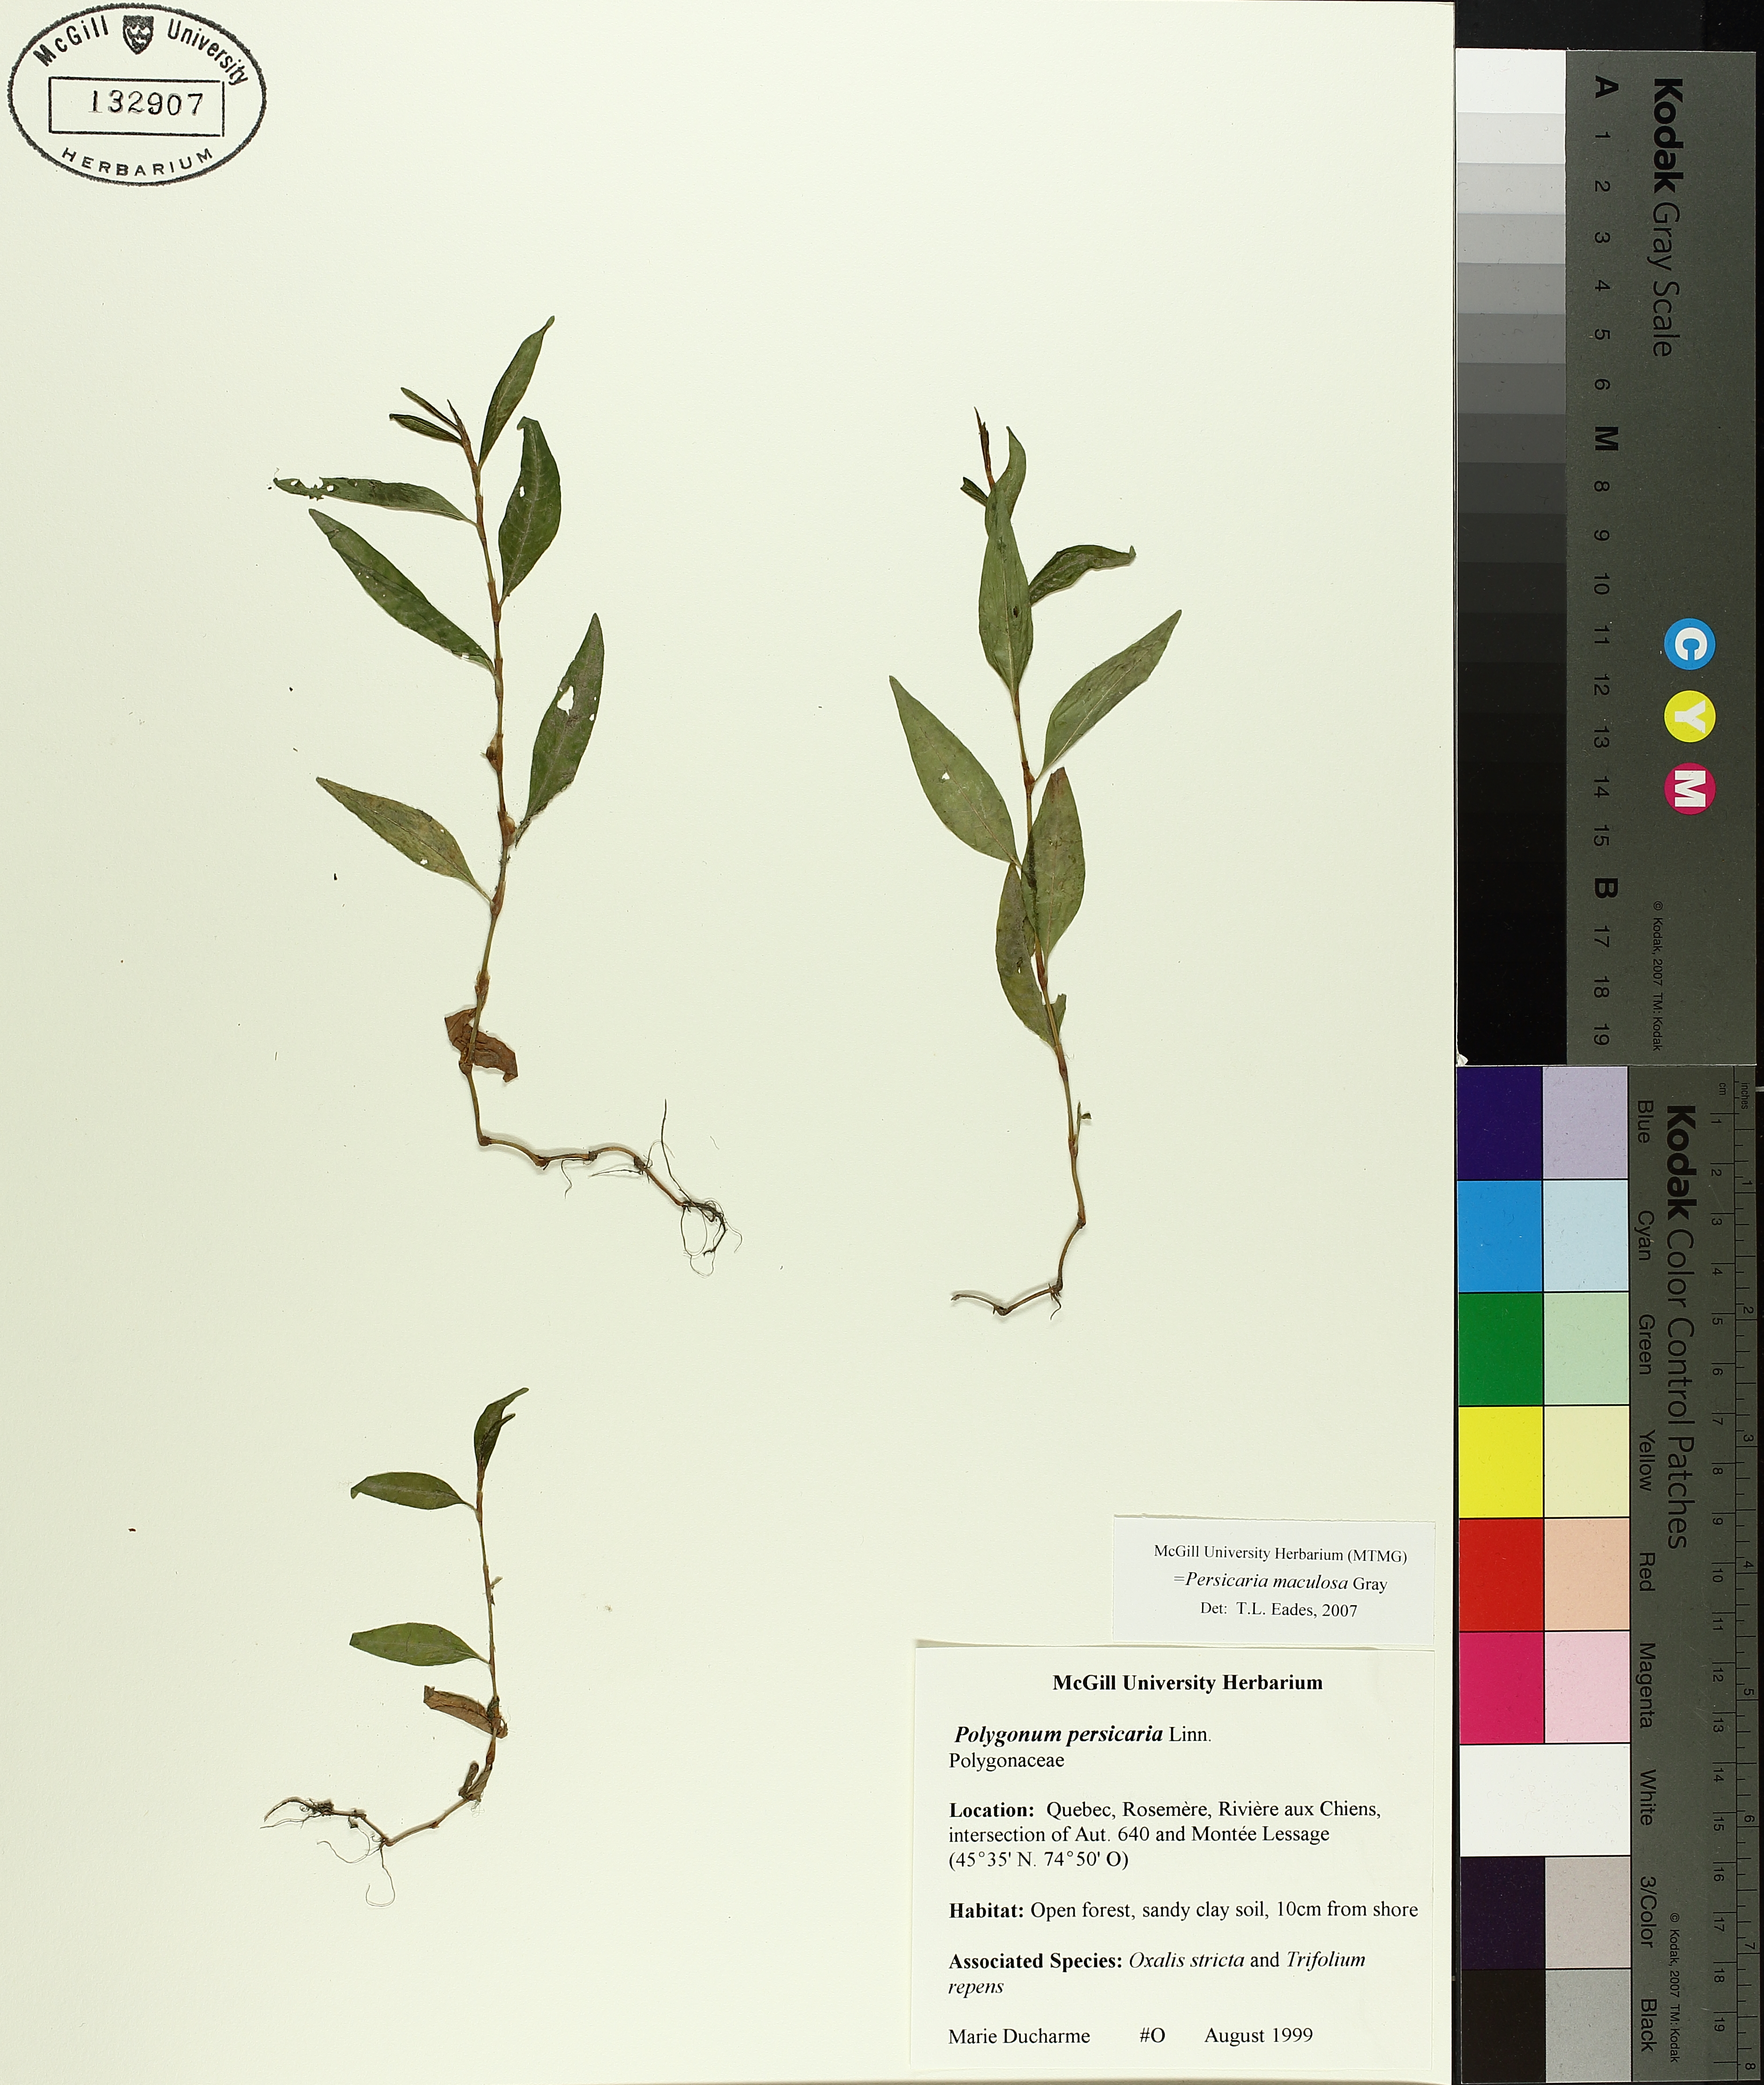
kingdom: Plantae
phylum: Tracheophyta
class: Magnoliopsida
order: Caryophyllales
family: Polygonaceae
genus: Persicaria
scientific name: Persicaria maculosa
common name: Redshank
